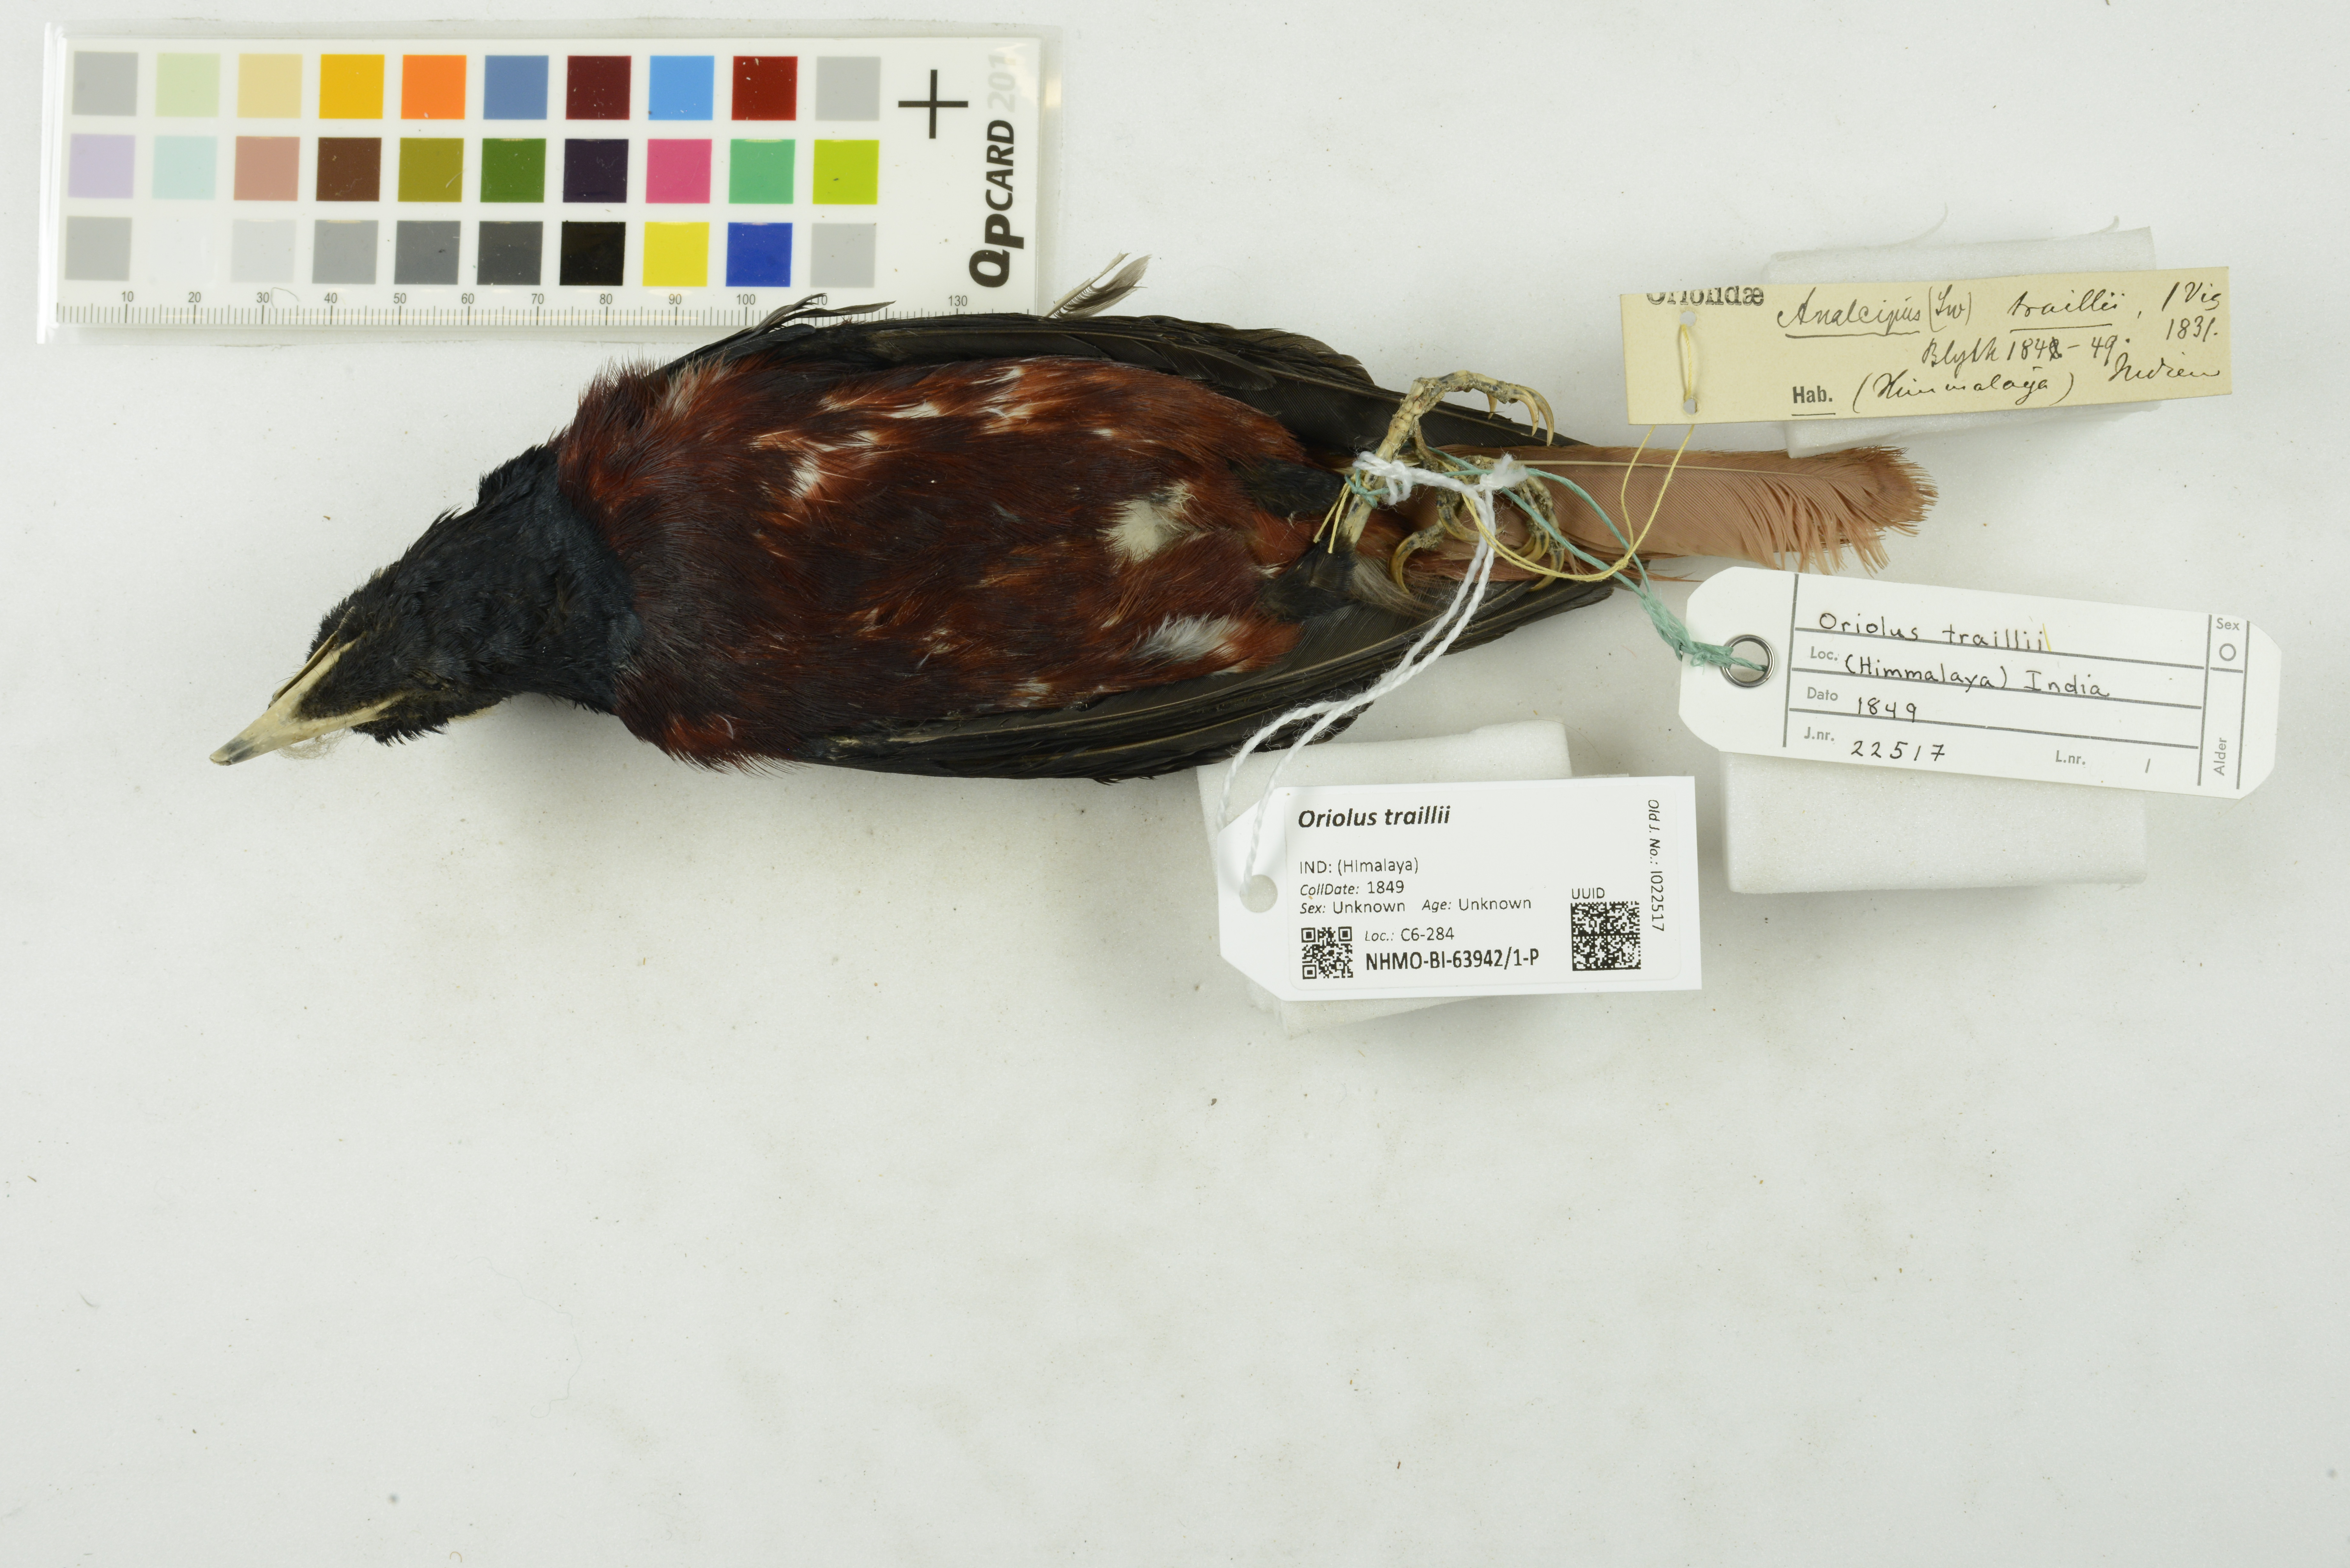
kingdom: Animalia
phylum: Chordata
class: Aves
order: Passeriformes
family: Oriolidae
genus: Oriolus
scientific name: Oriolus traillii
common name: Maroon oriole
